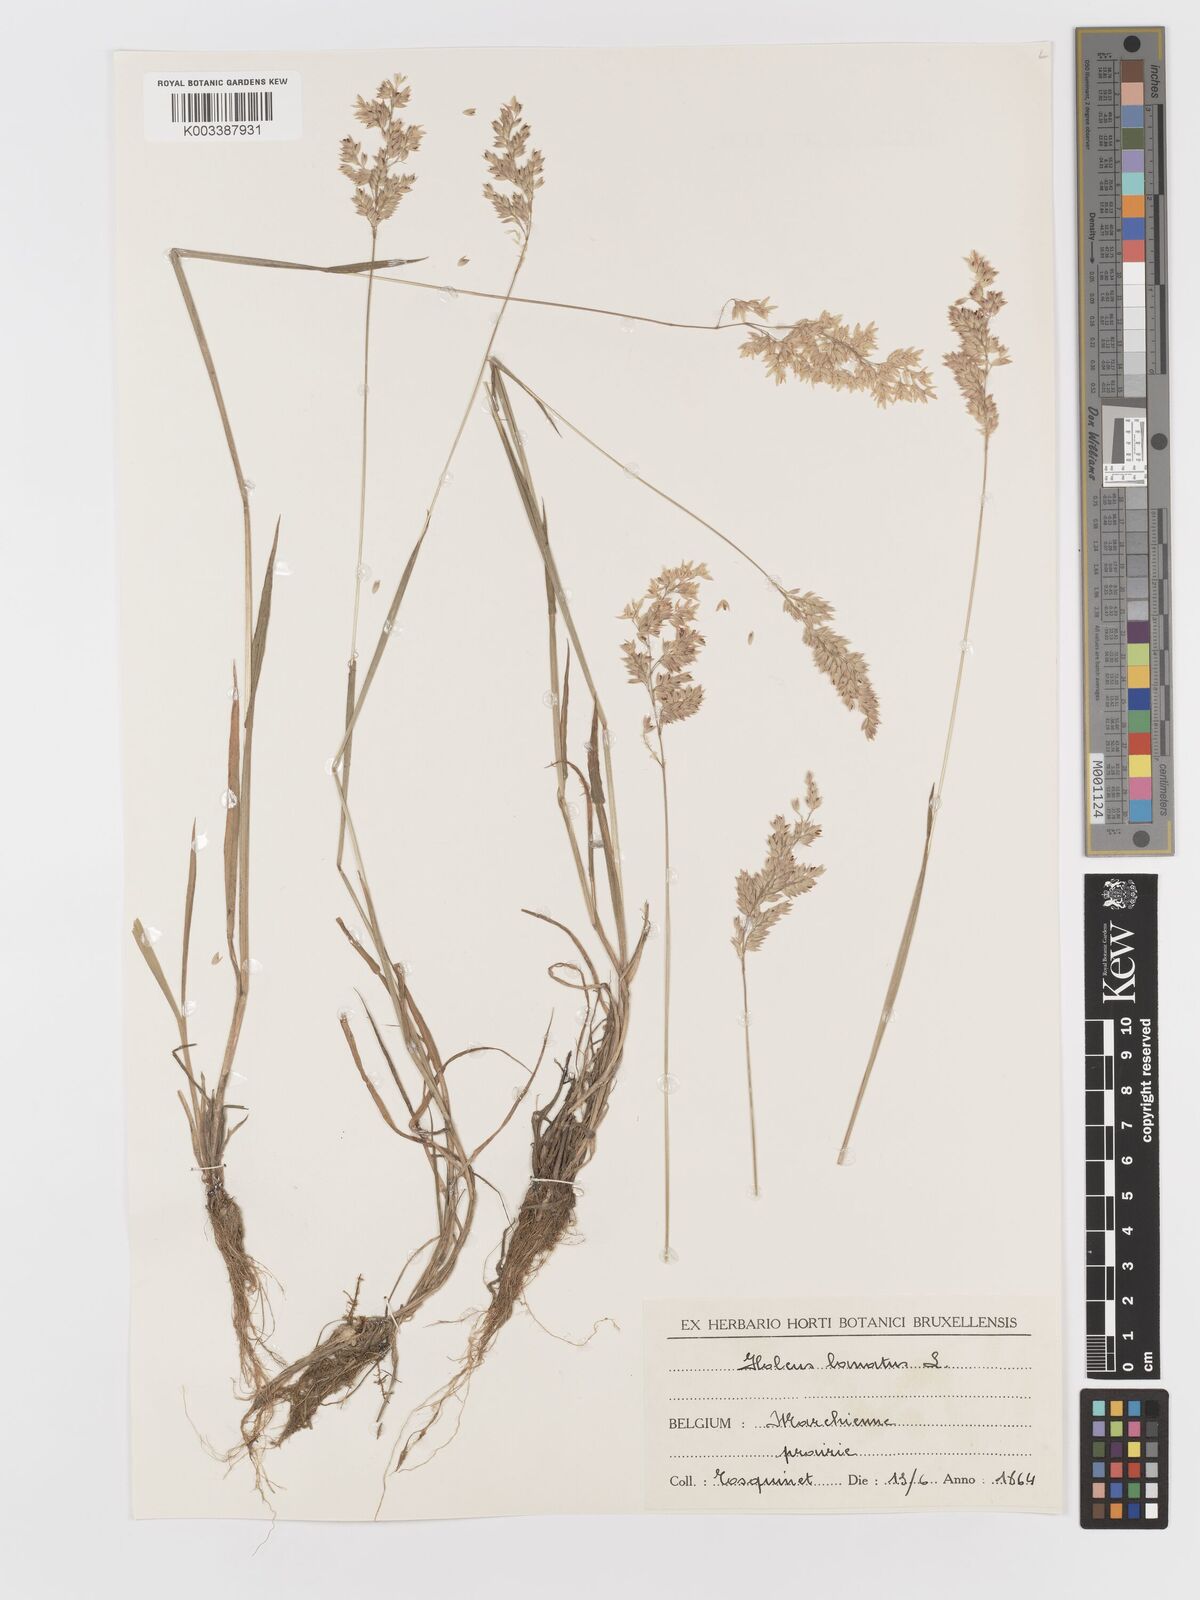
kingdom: Plantae
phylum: Tracheophyta
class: Liliopsida
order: Poales
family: Poaceae
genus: Holcus
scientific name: Holcus lanatus
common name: Yorkshire-fog
